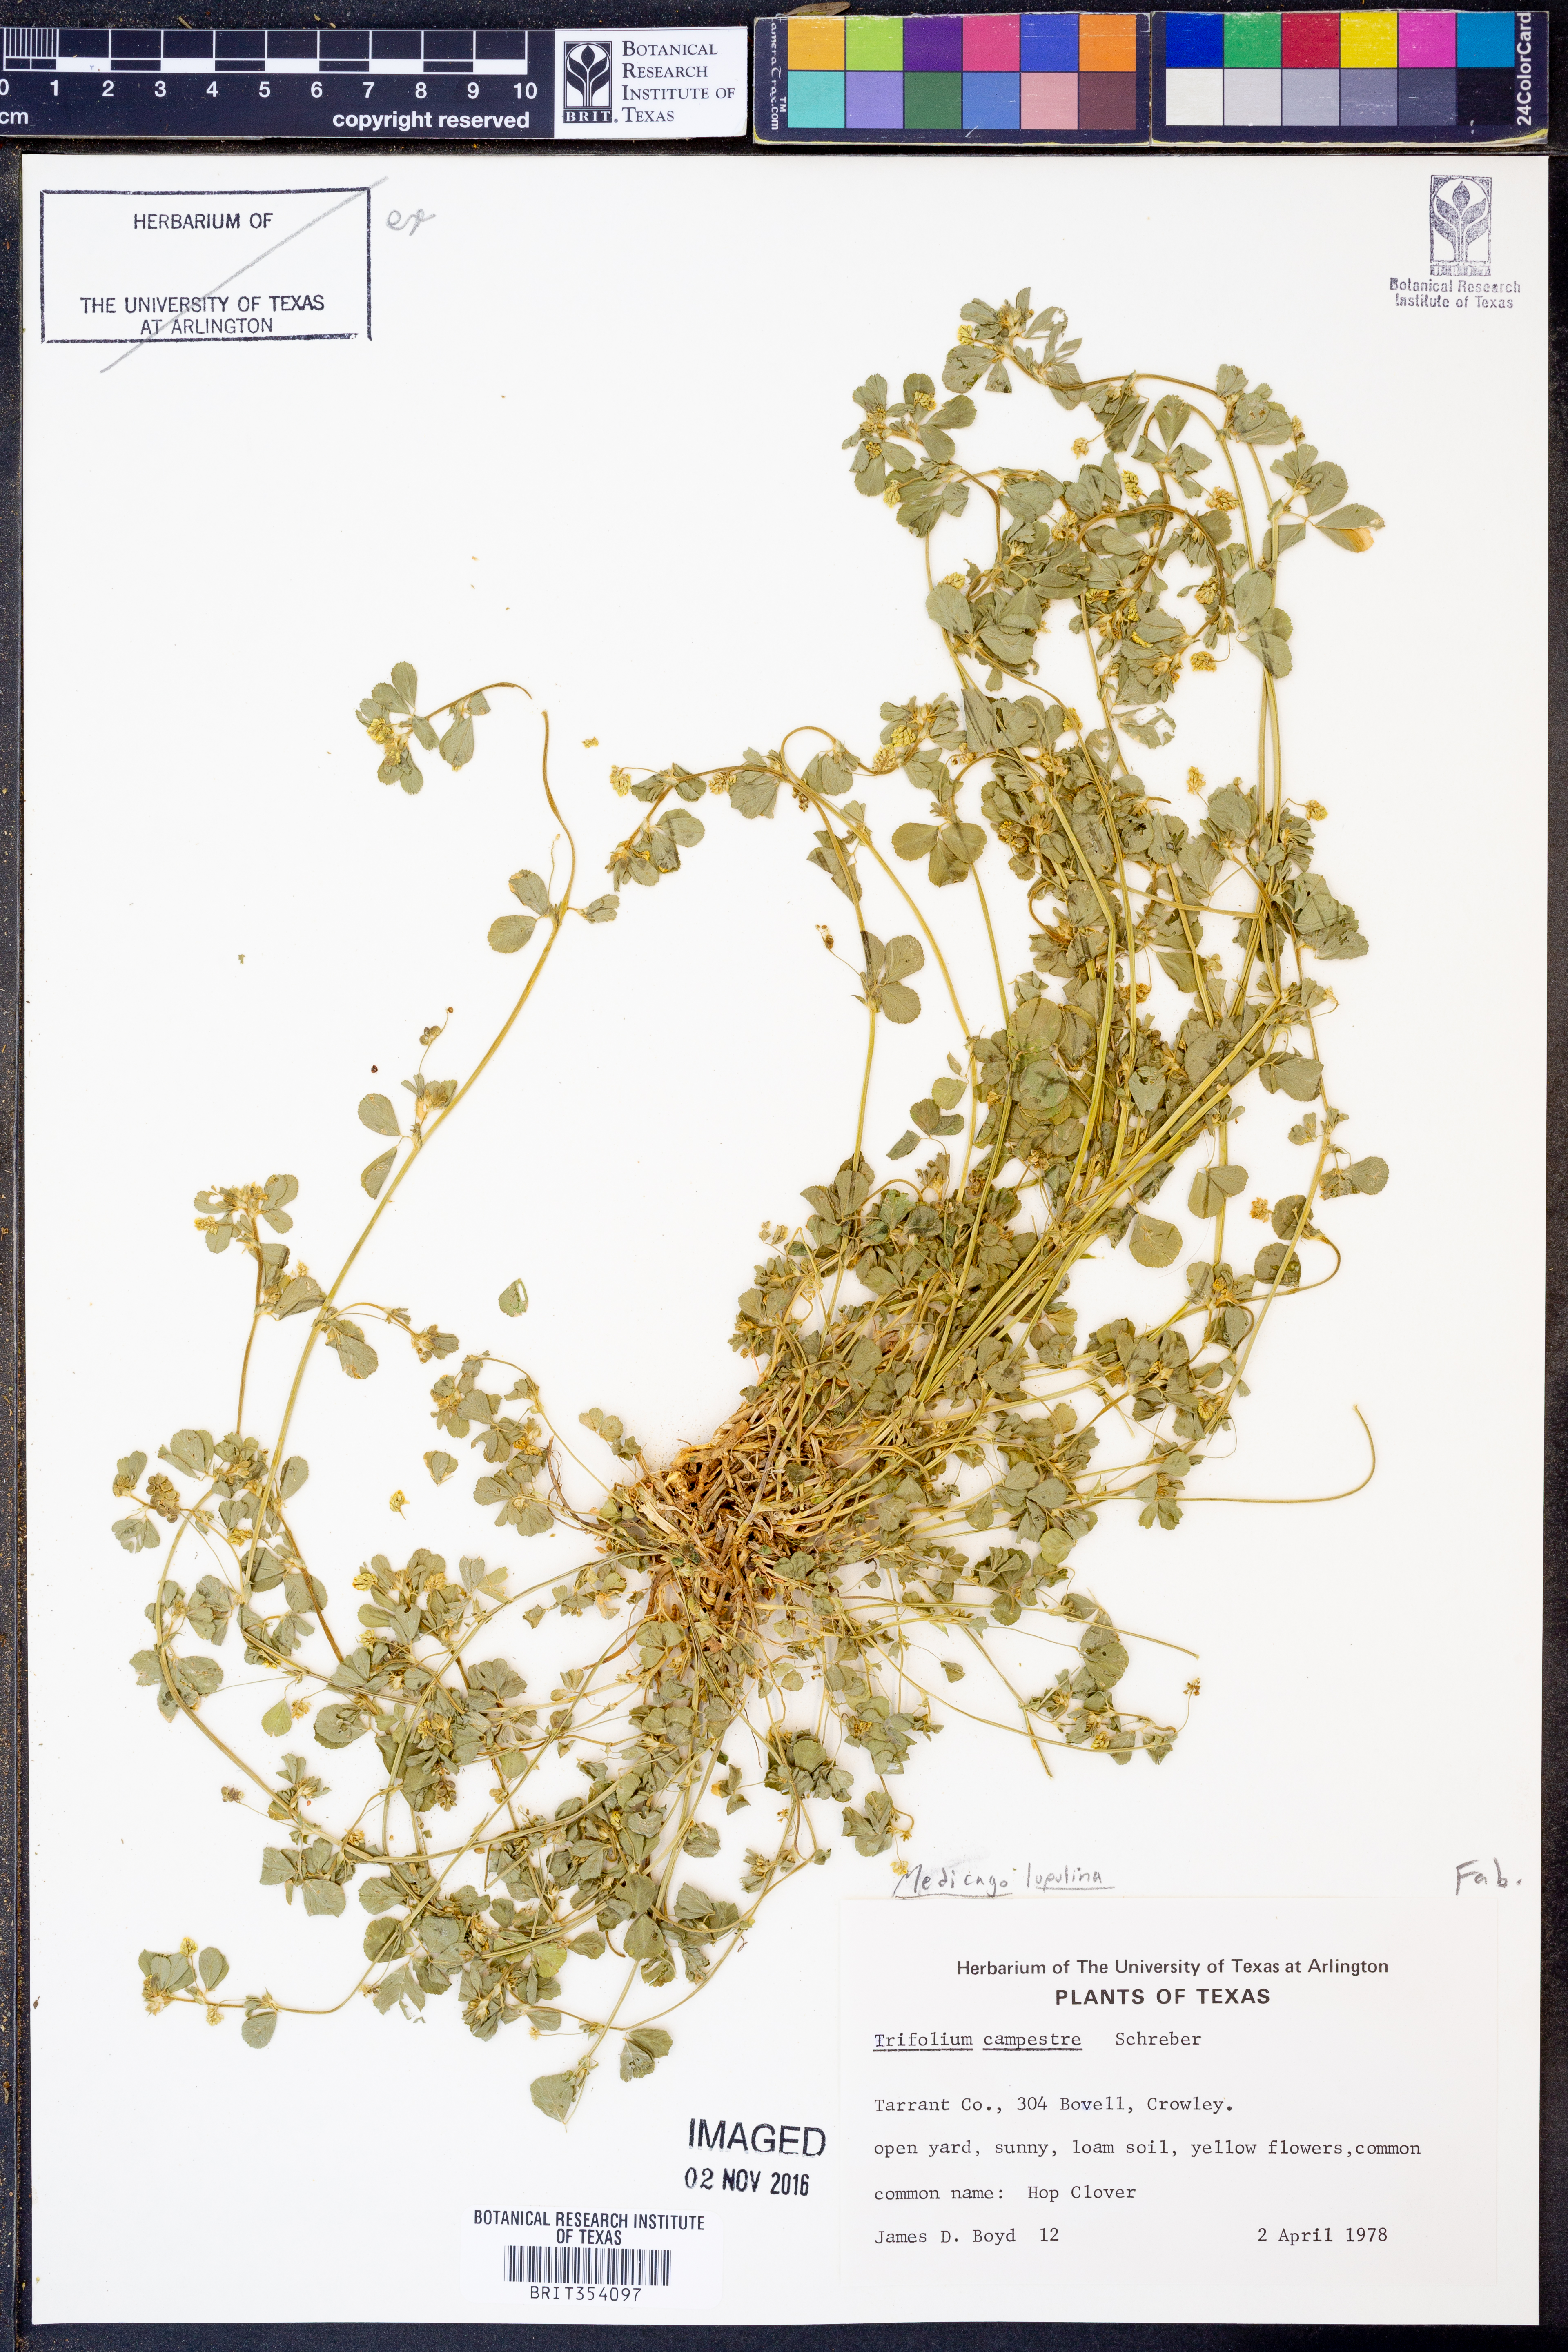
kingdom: Plantae
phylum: Tracheophyta
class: Magnoliopsida
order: Fabales
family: Fabaceae
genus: Medicago
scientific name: Medicago lupulina
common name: Black medick
